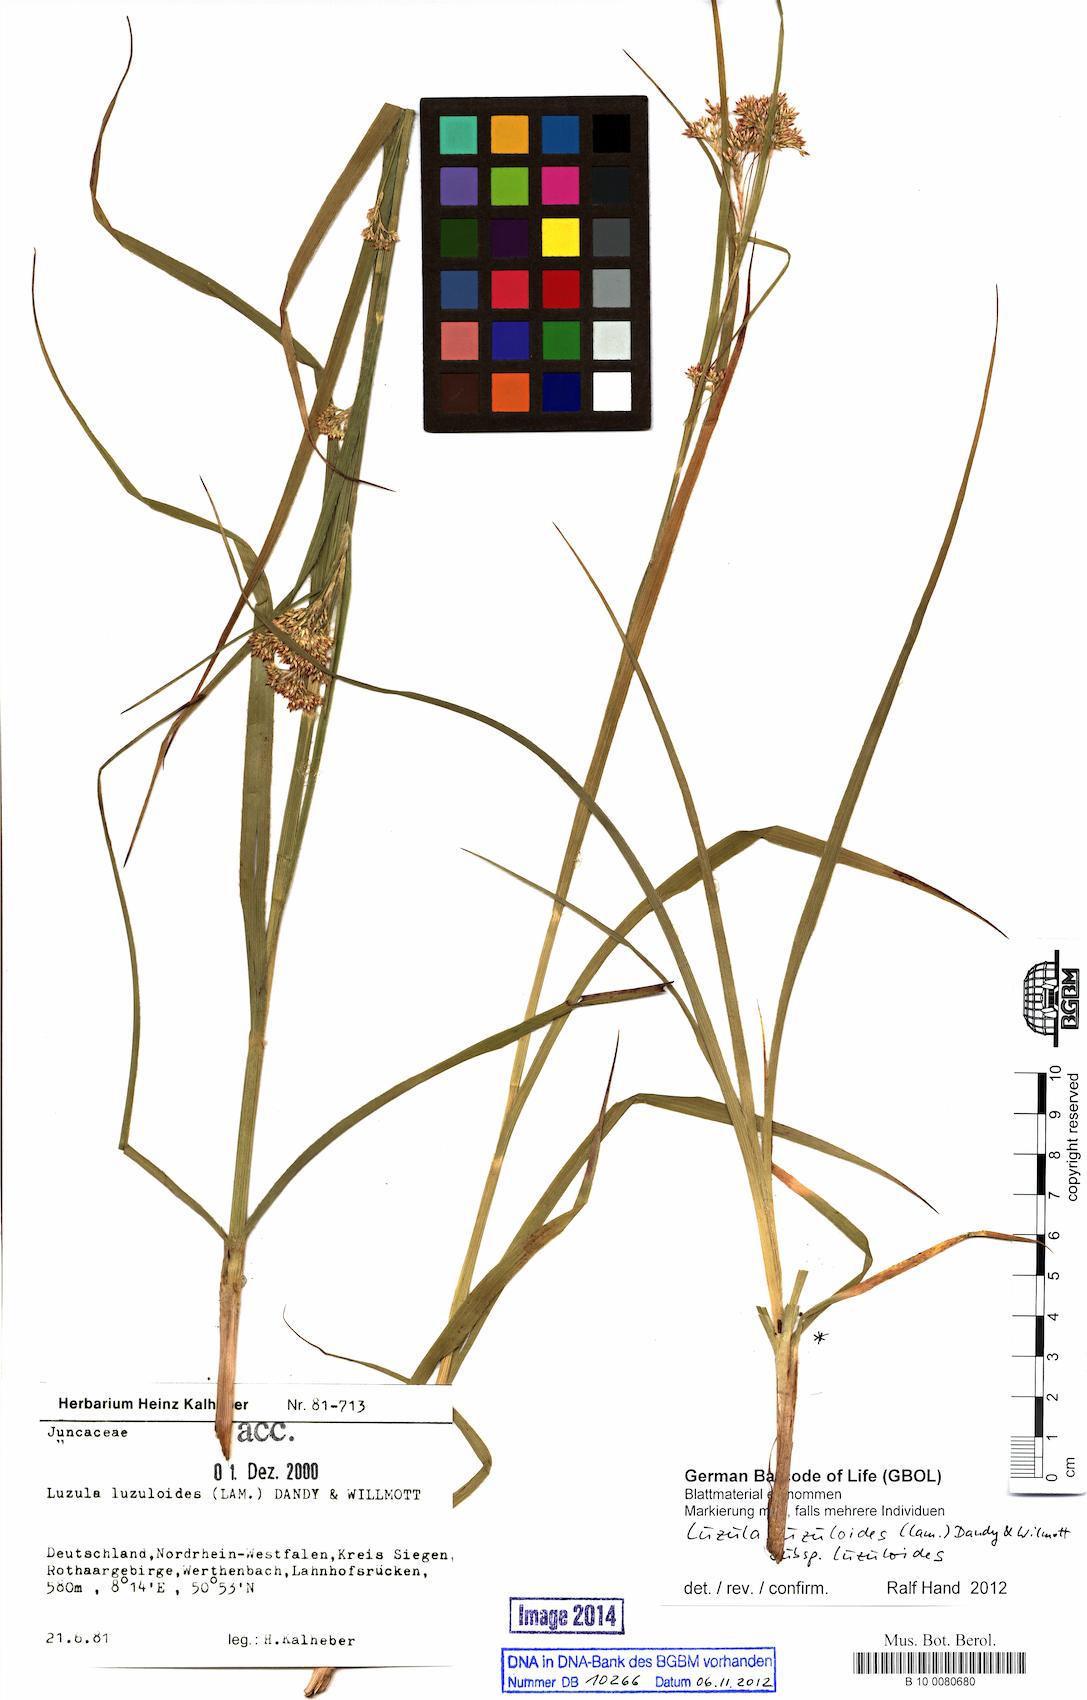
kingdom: Plantae
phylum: Tracheophyta
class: Liliopsida
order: Poales
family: Juncaceae
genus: Luzula
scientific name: Luzula luzuloides
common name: White wood-rush
